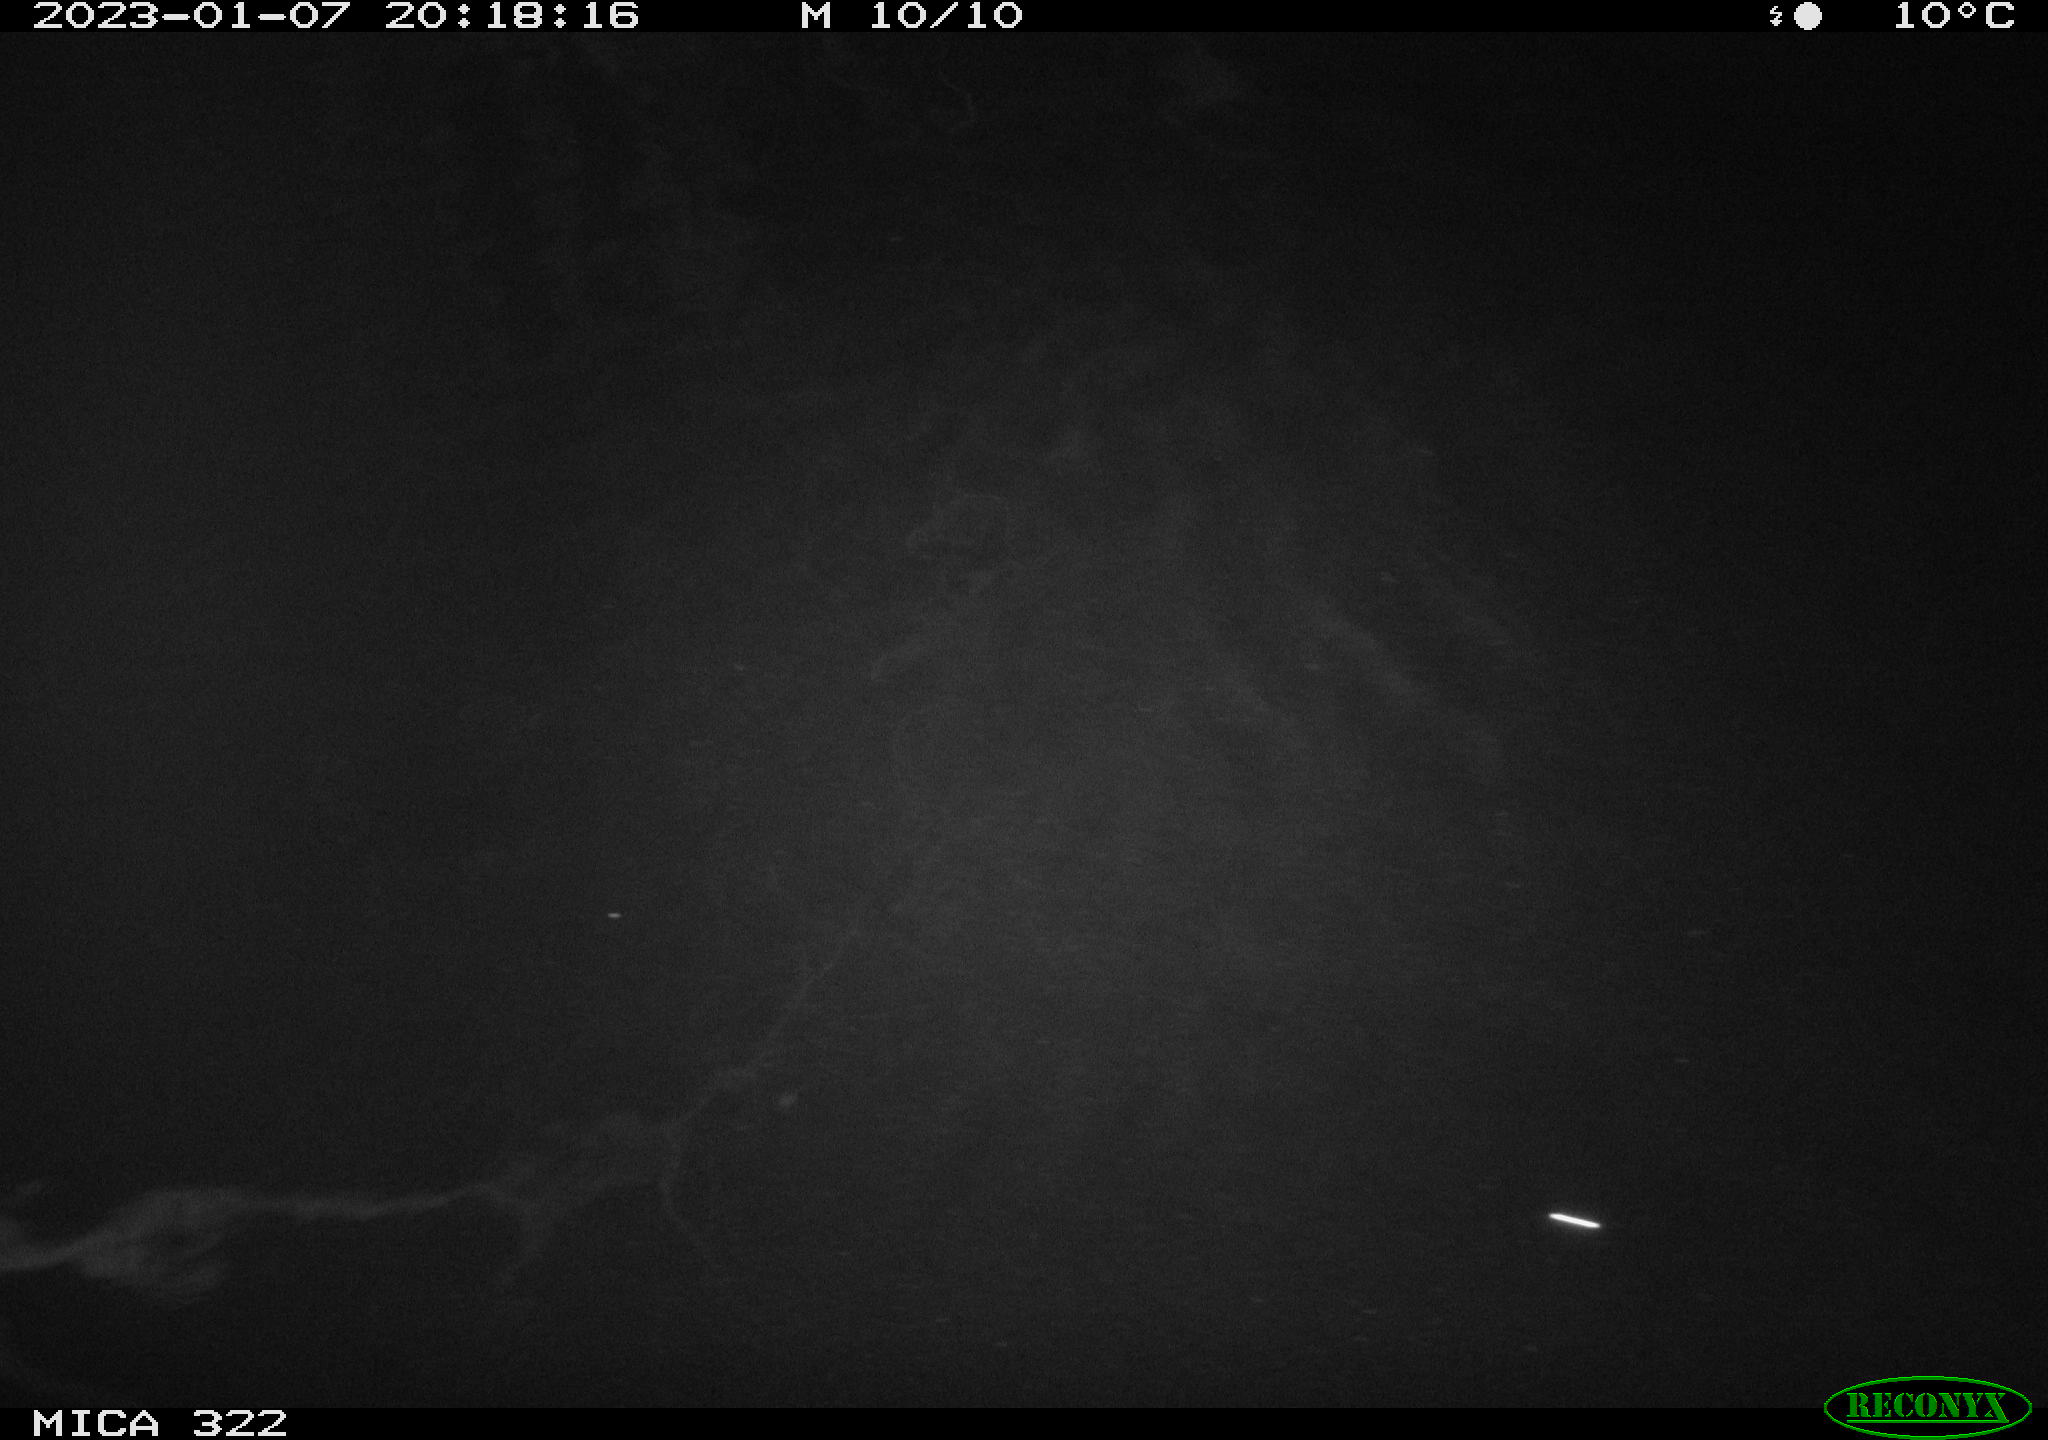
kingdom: Animalia
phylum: Chordata
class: Aves
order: Anseriformes
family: Anatidae
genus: Anas
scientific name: Anas
